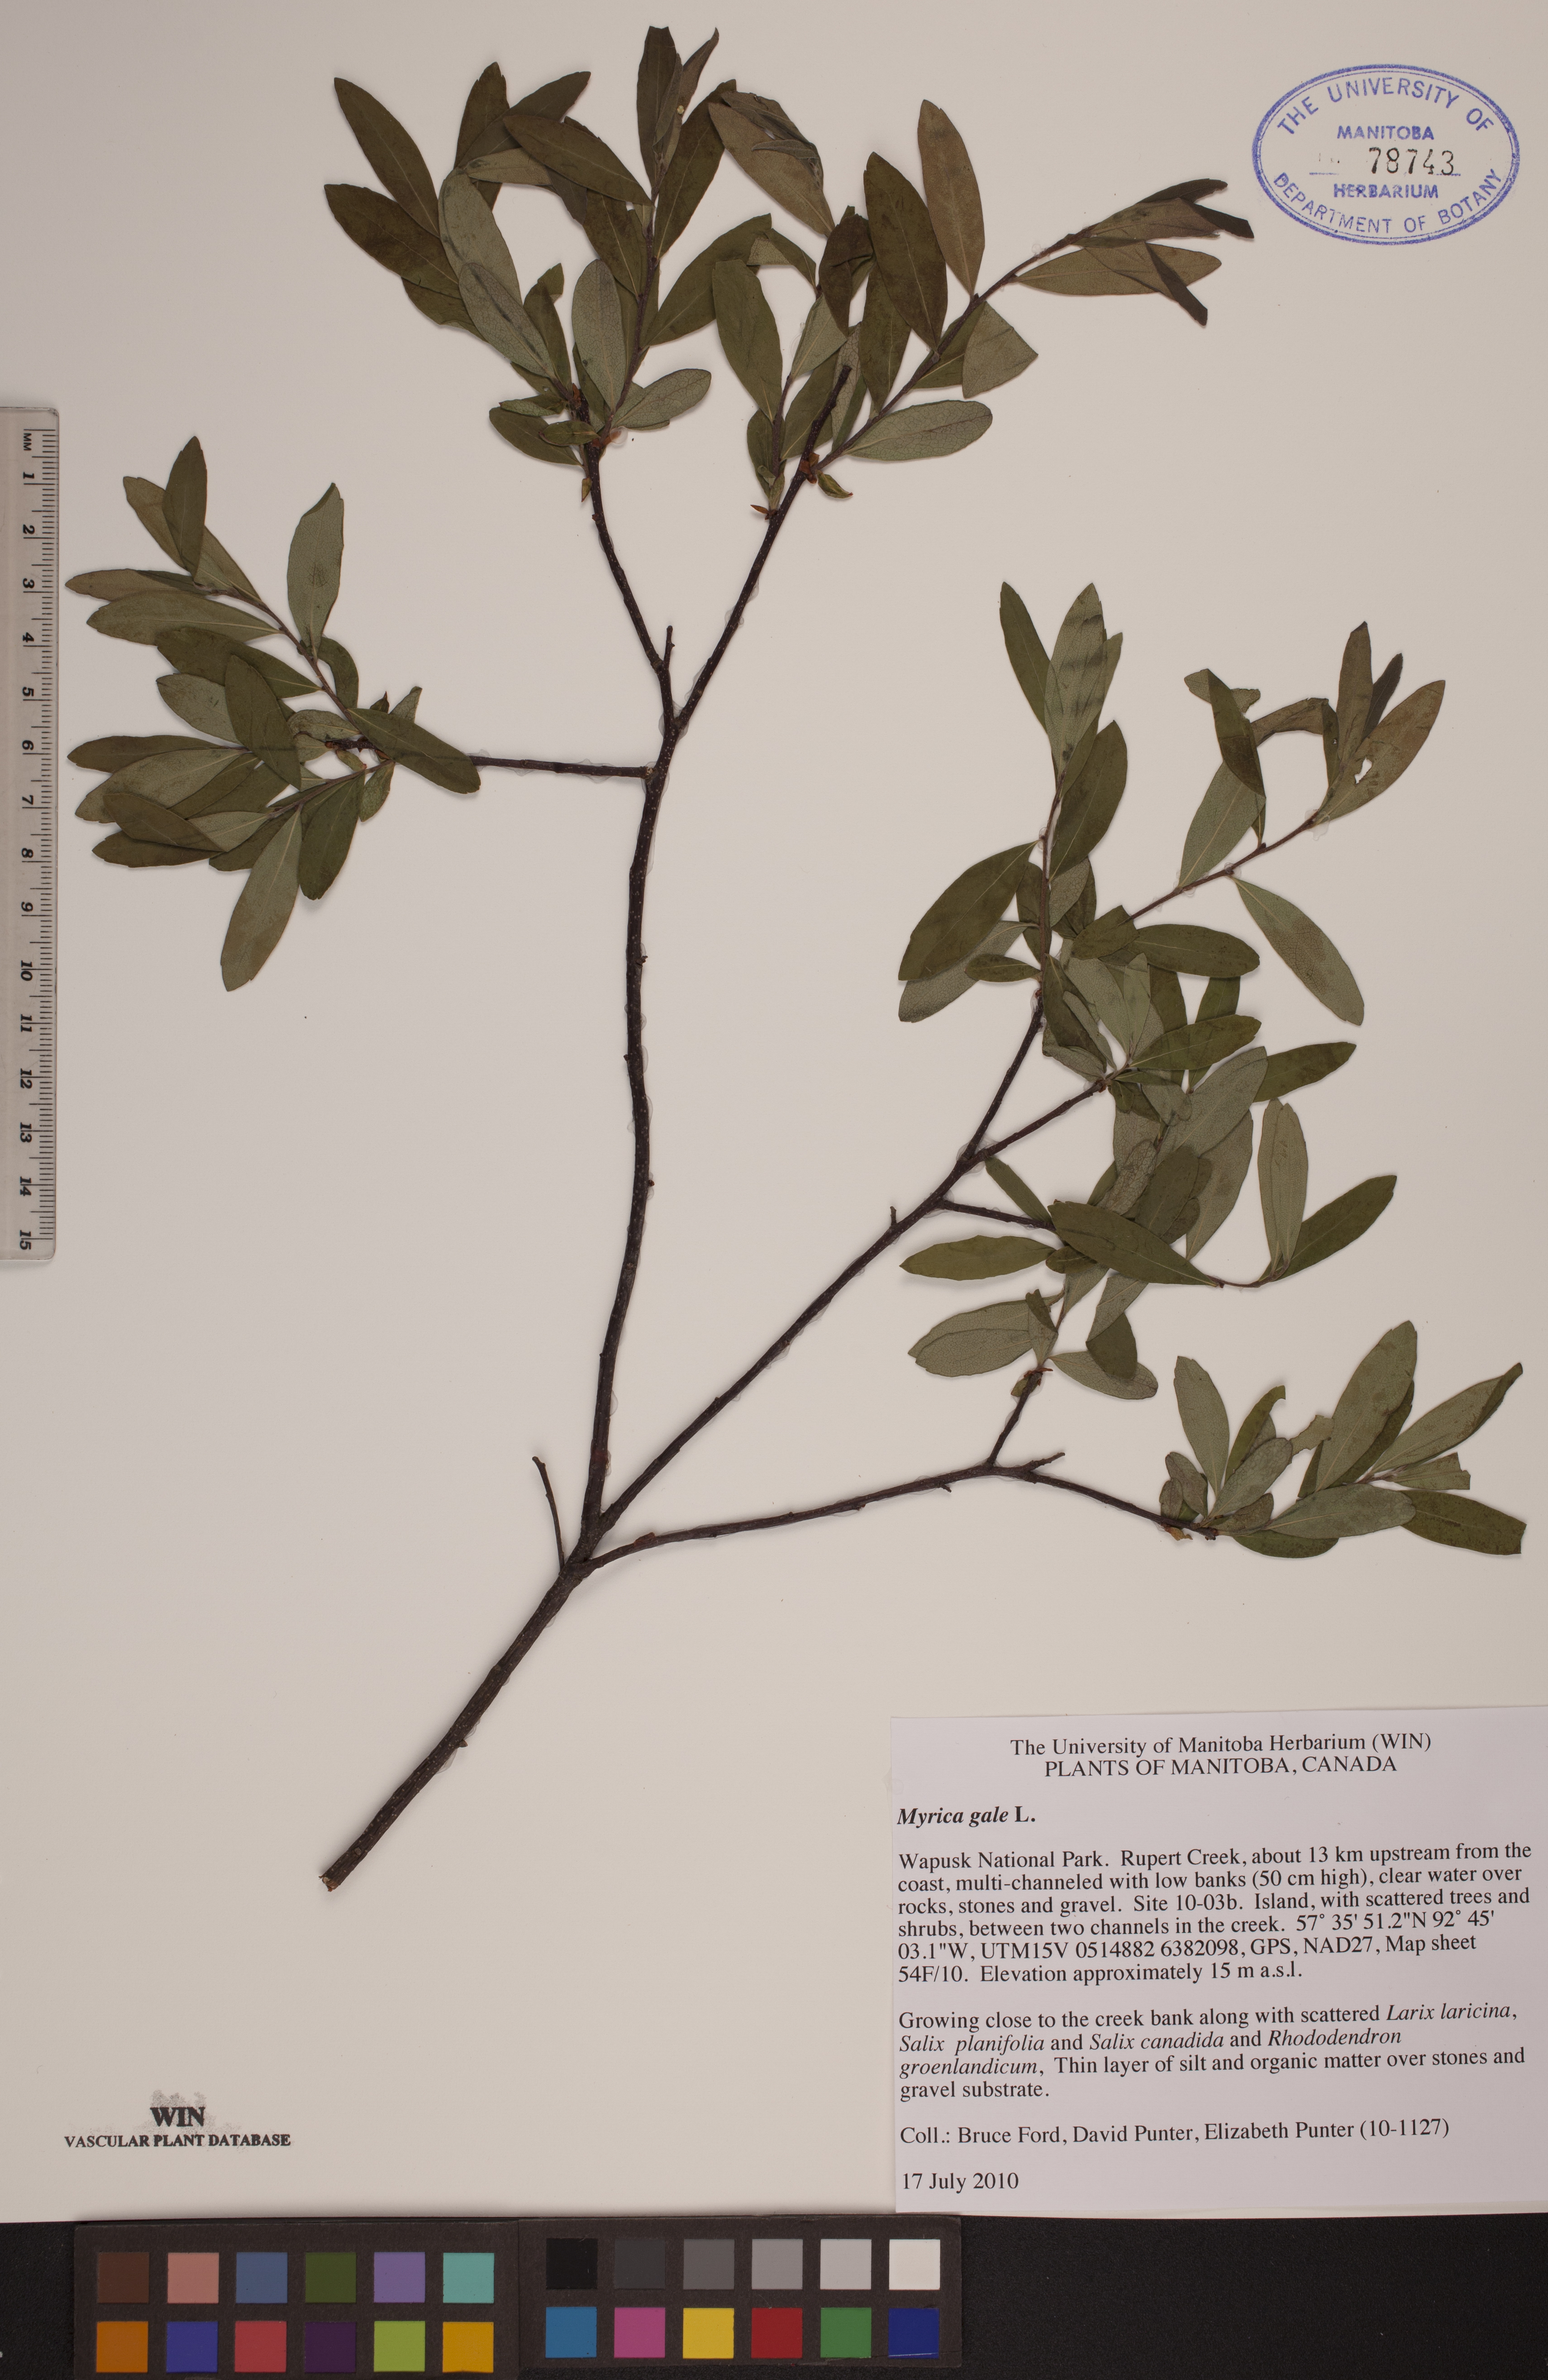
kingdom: Plantae
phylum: Tracheophyta
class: Magnoliopsida
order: Fagales
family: Myricaceae
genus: Myrica
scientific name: Myrica gale
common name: Sweet gale
